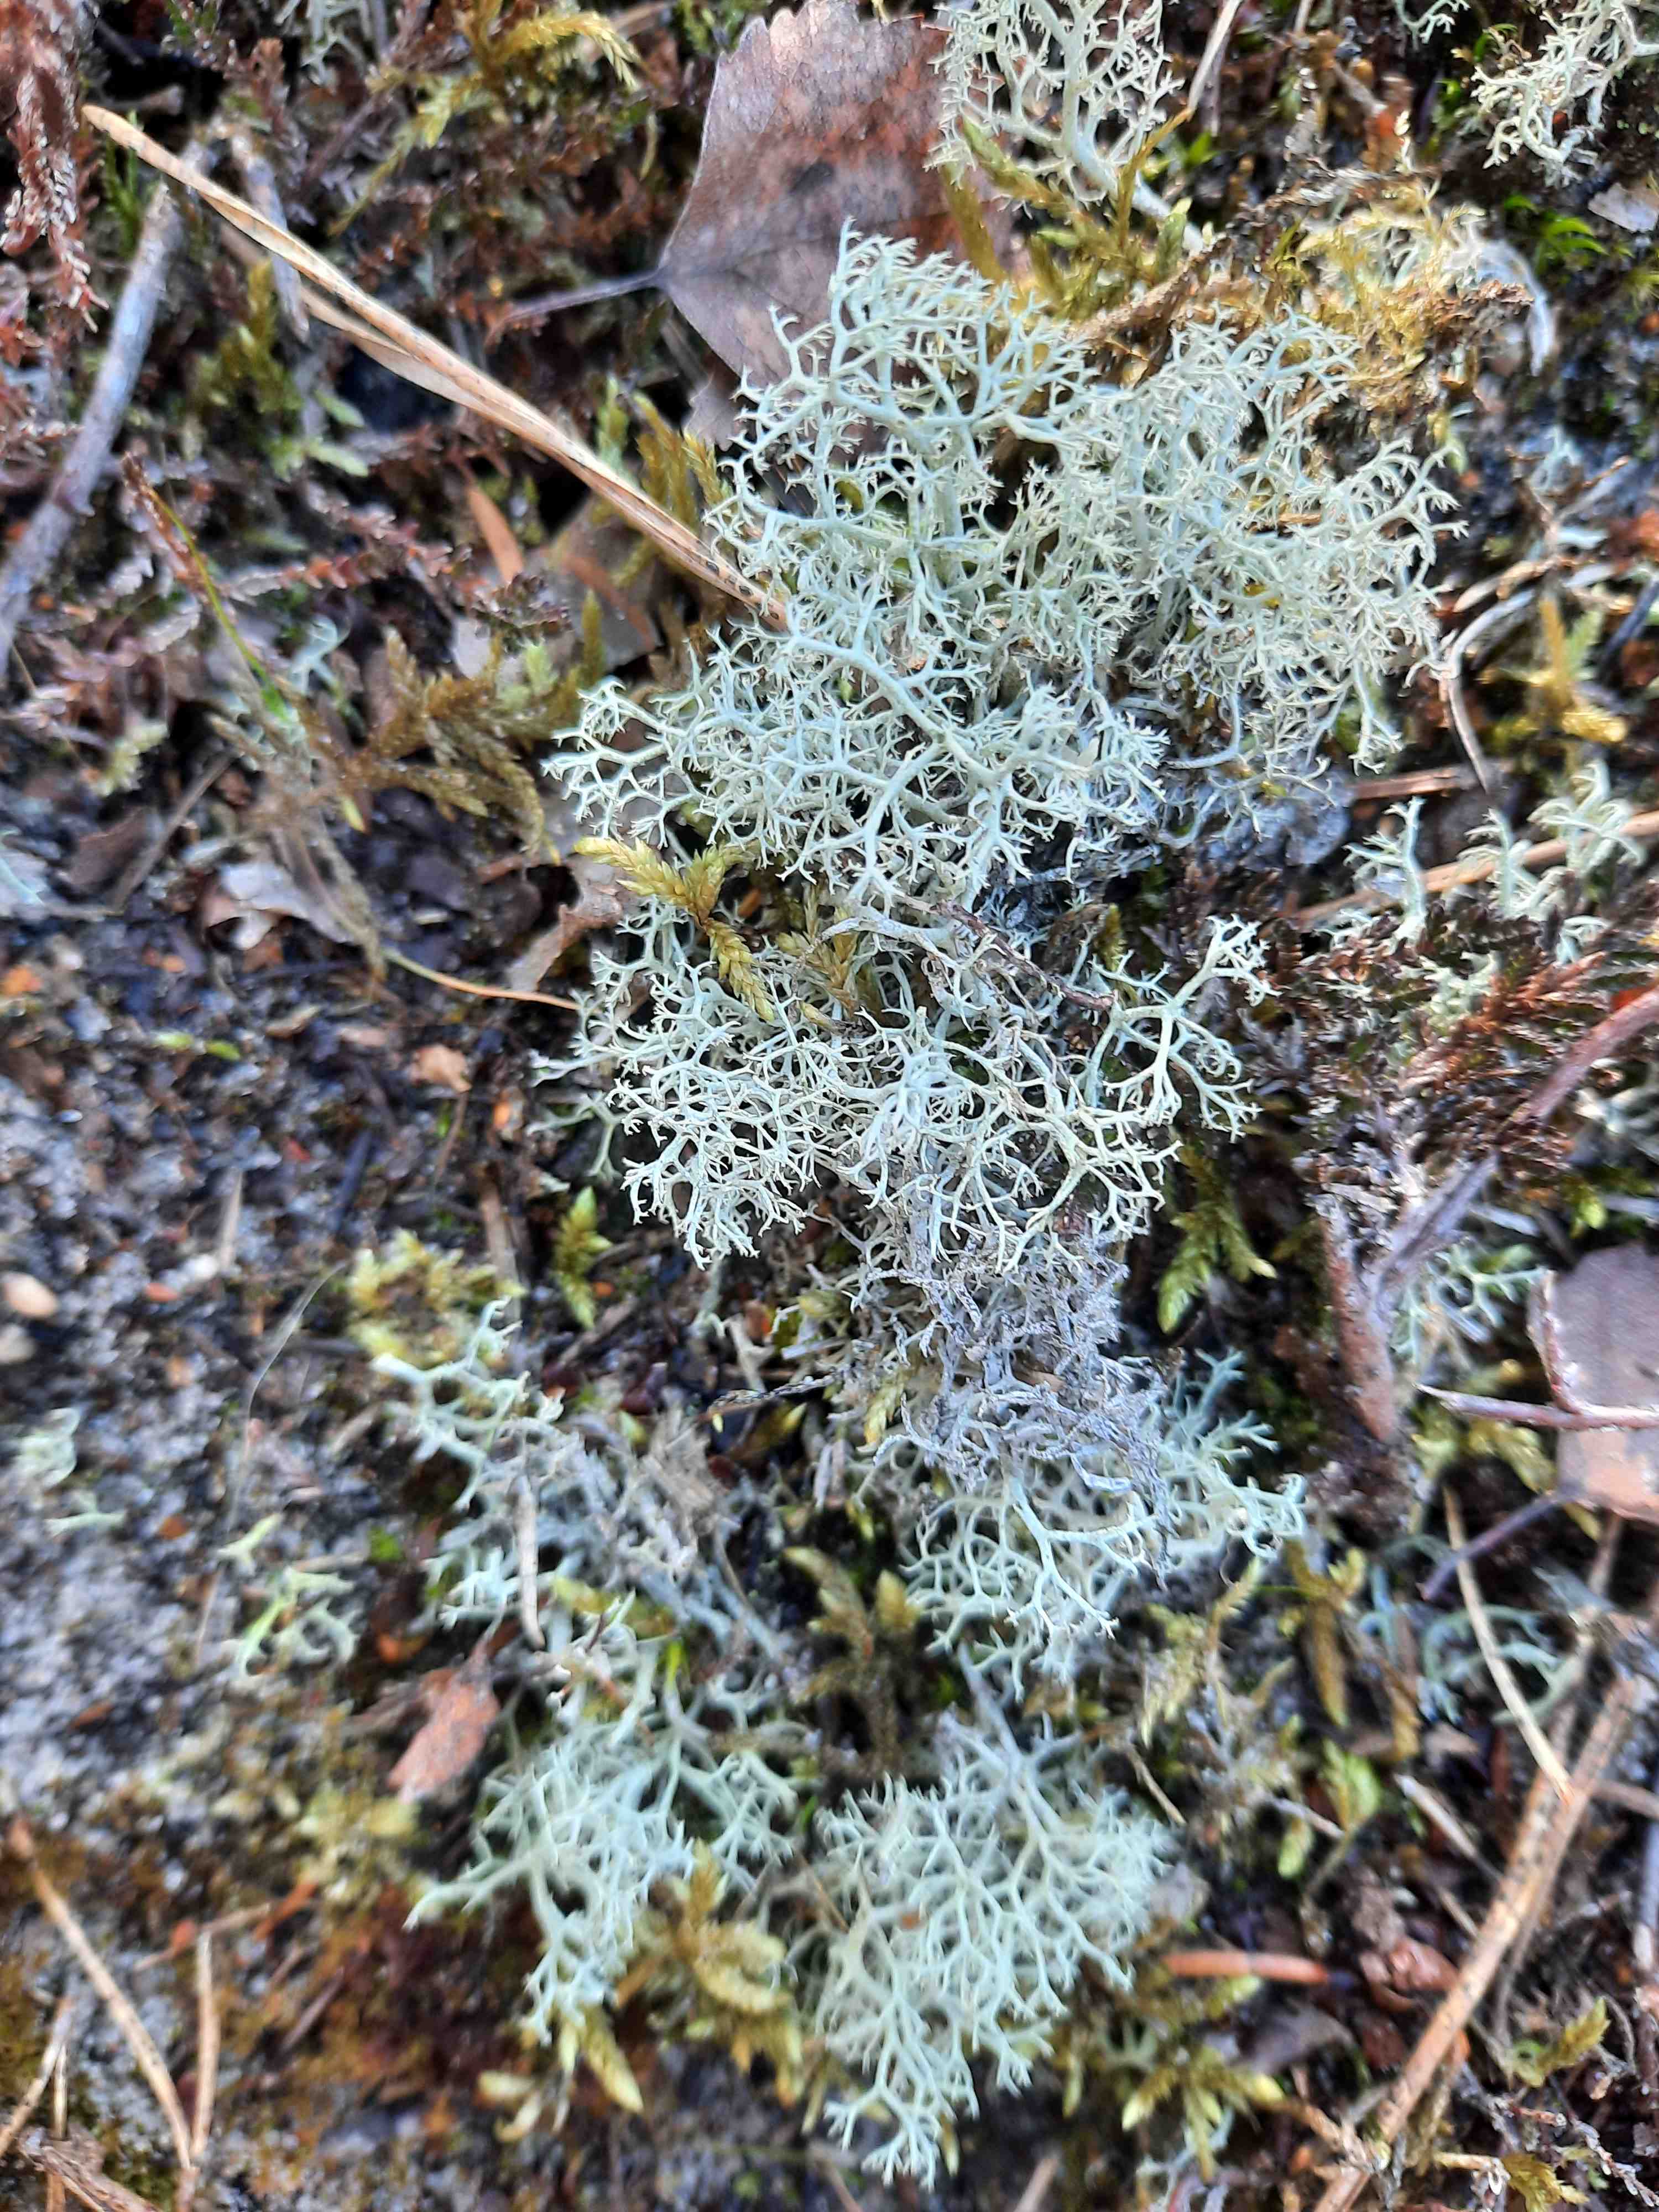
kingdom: Fungi
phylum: Ascomycota
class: Lecanoromycetes
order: Lecanorales
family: Cladoniaceae
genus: Cladonia
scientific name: Cladonia portentosa
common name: hede-rensdyrlav
